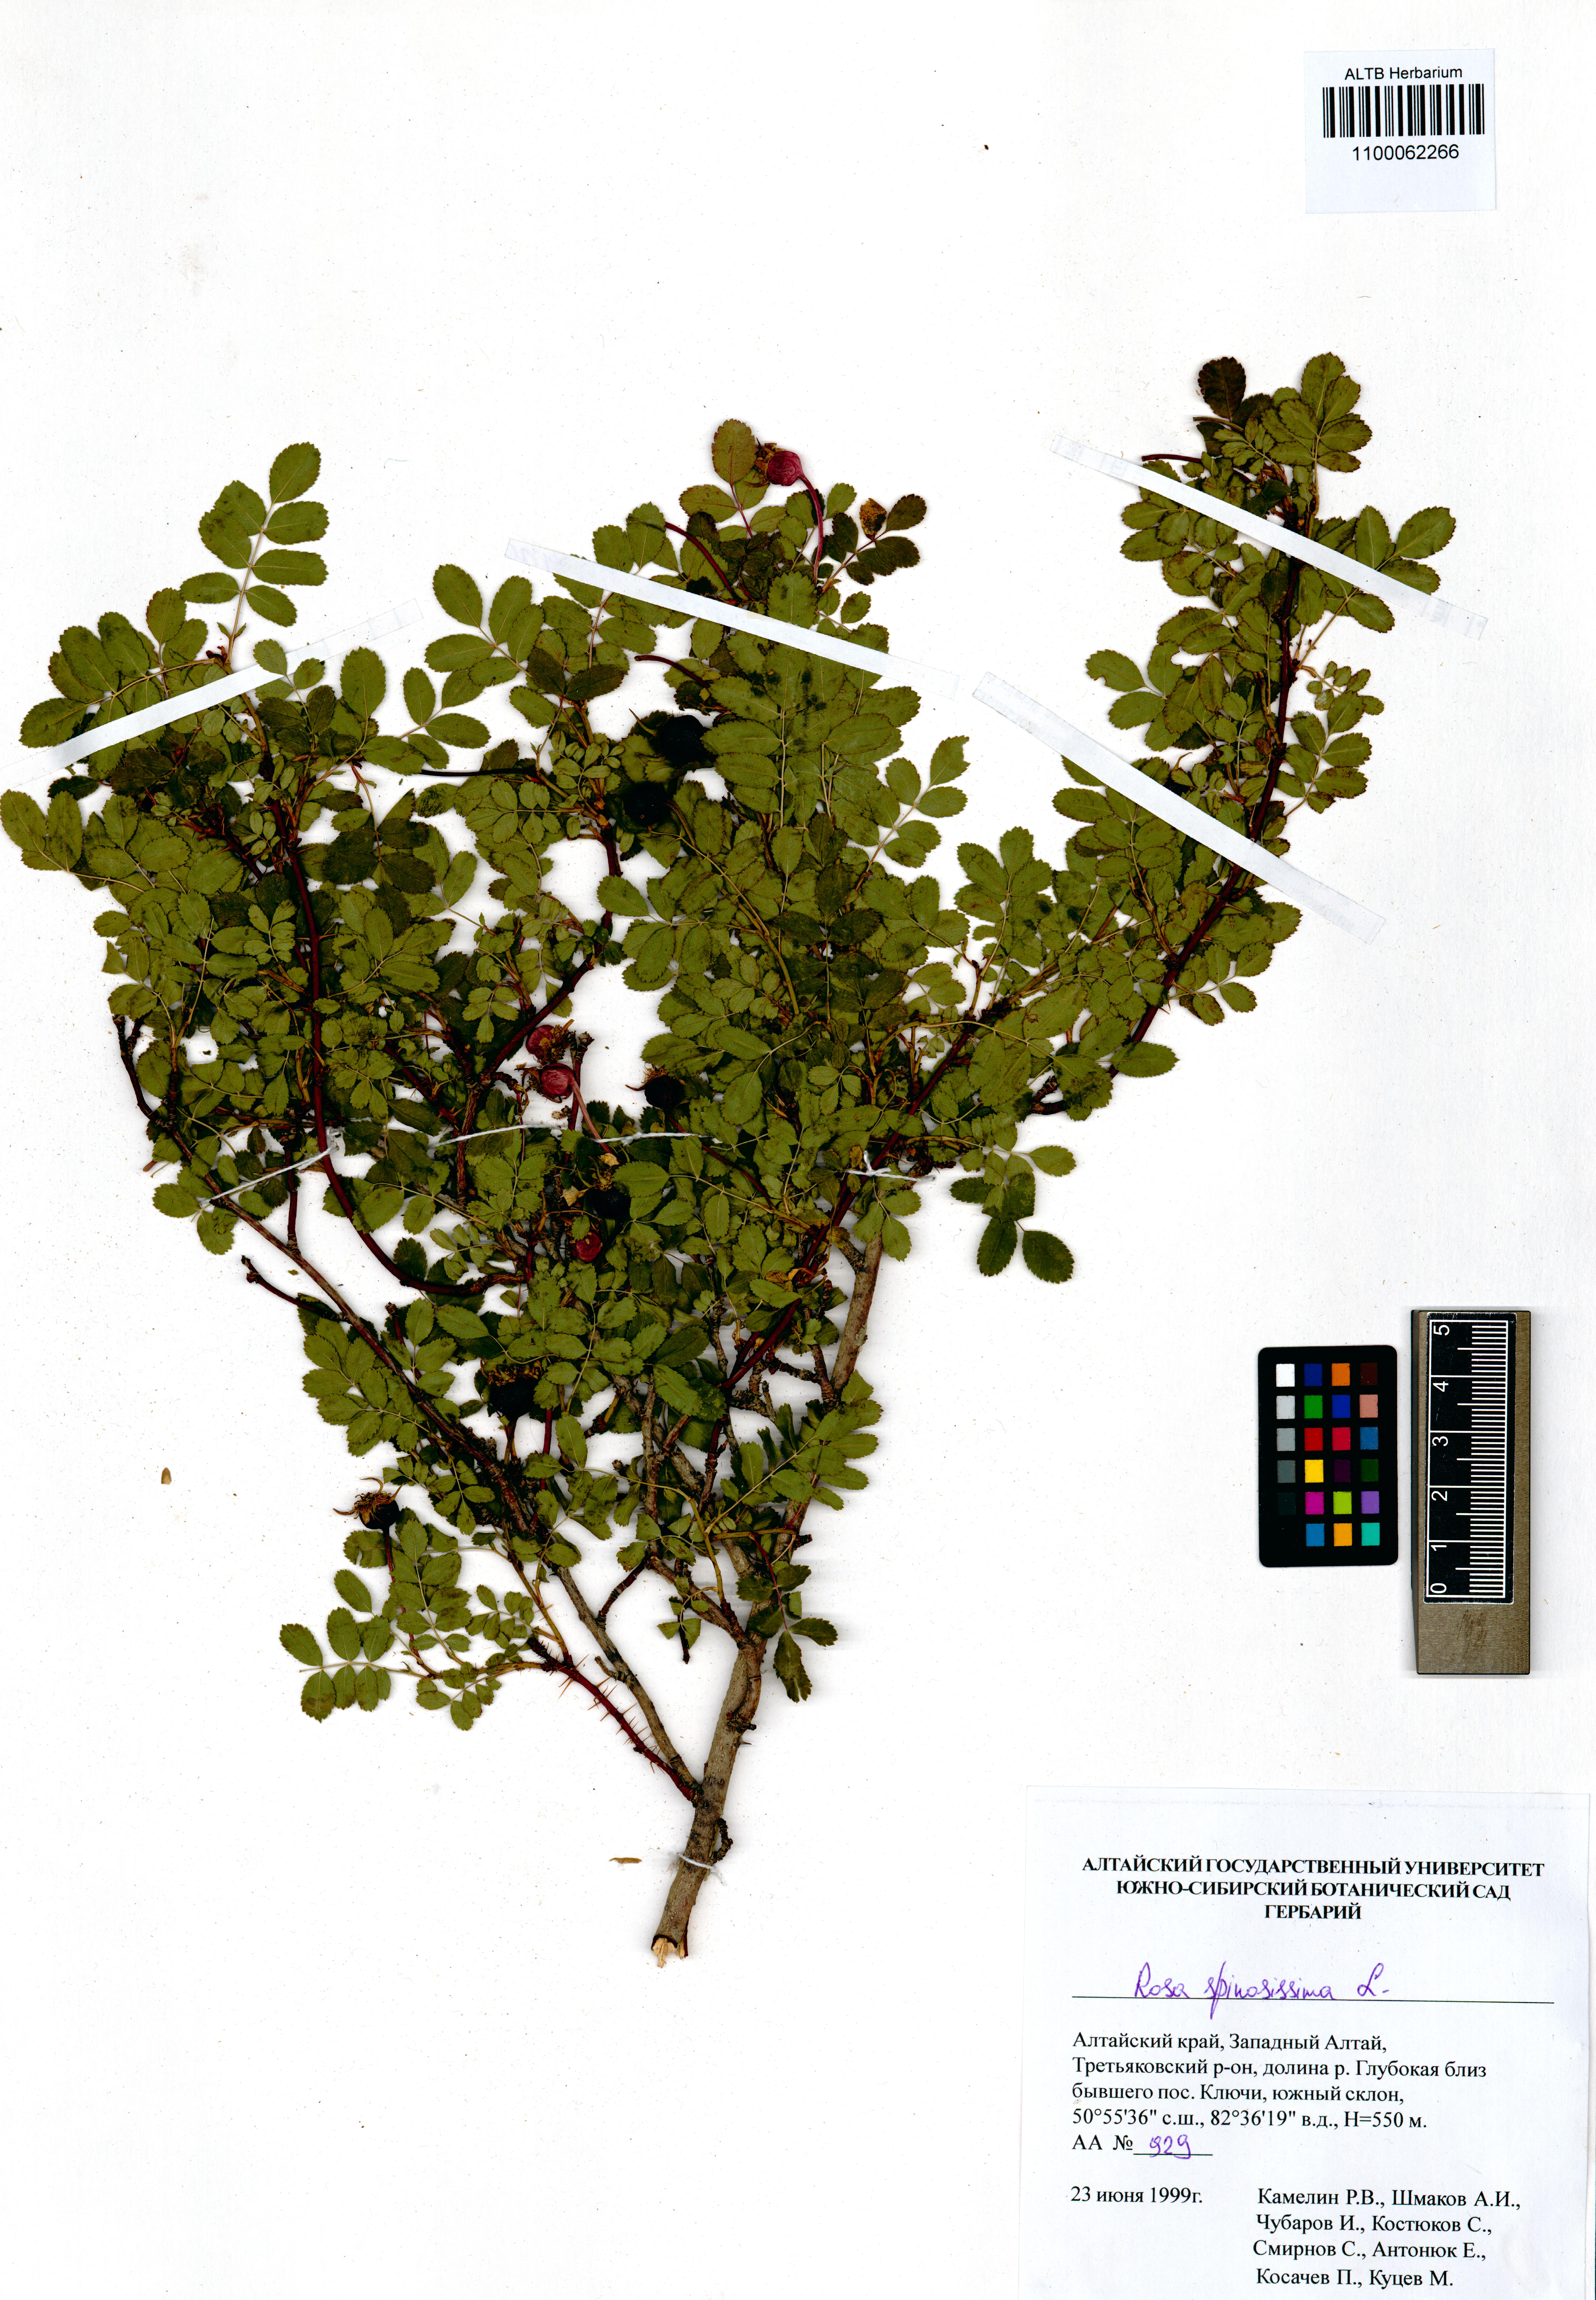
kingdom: Plantae
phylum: Tracheophyta
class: Magnoliopsida
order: Rosales
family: Rosaceae
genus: Rosa
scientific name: Rosa spinosissima
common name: Burnet rose
